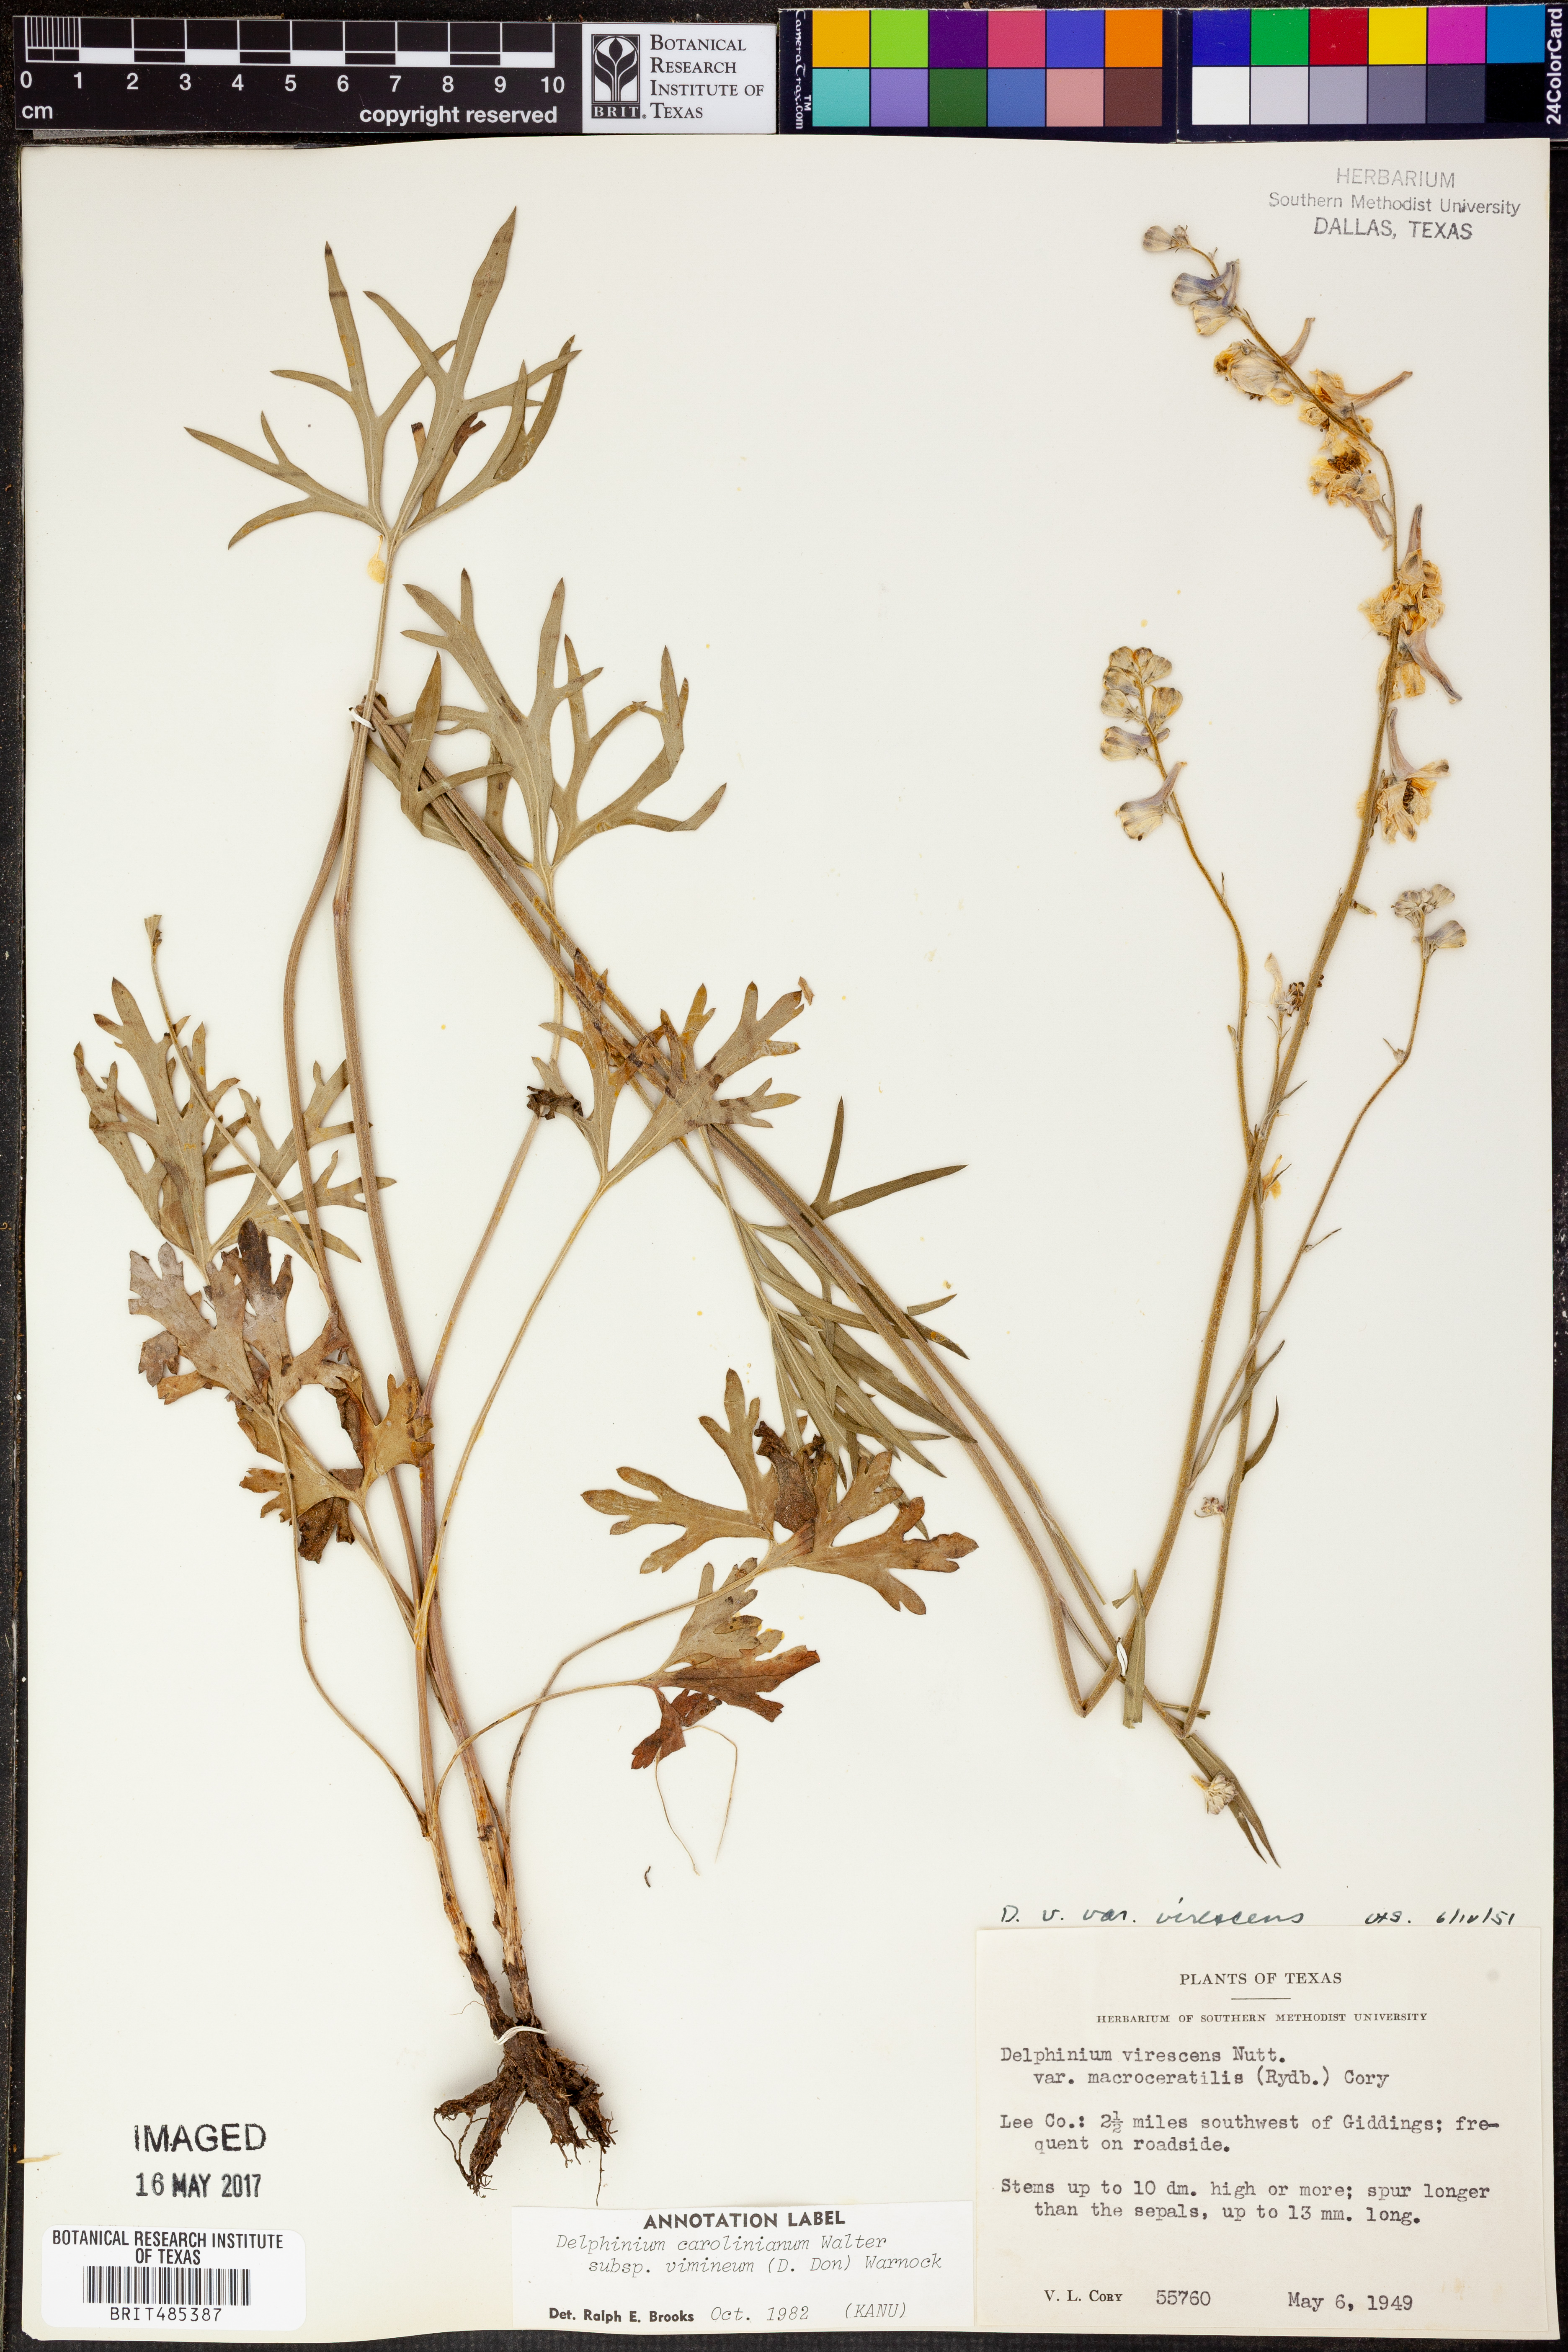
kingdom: Plantae
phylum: Tracheophyta
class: Magnoliopsida
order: Ranunculales
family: Ranunculaceae
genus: Delphinium
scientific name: Delphinium carolinianum
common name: Carolina larkspur
